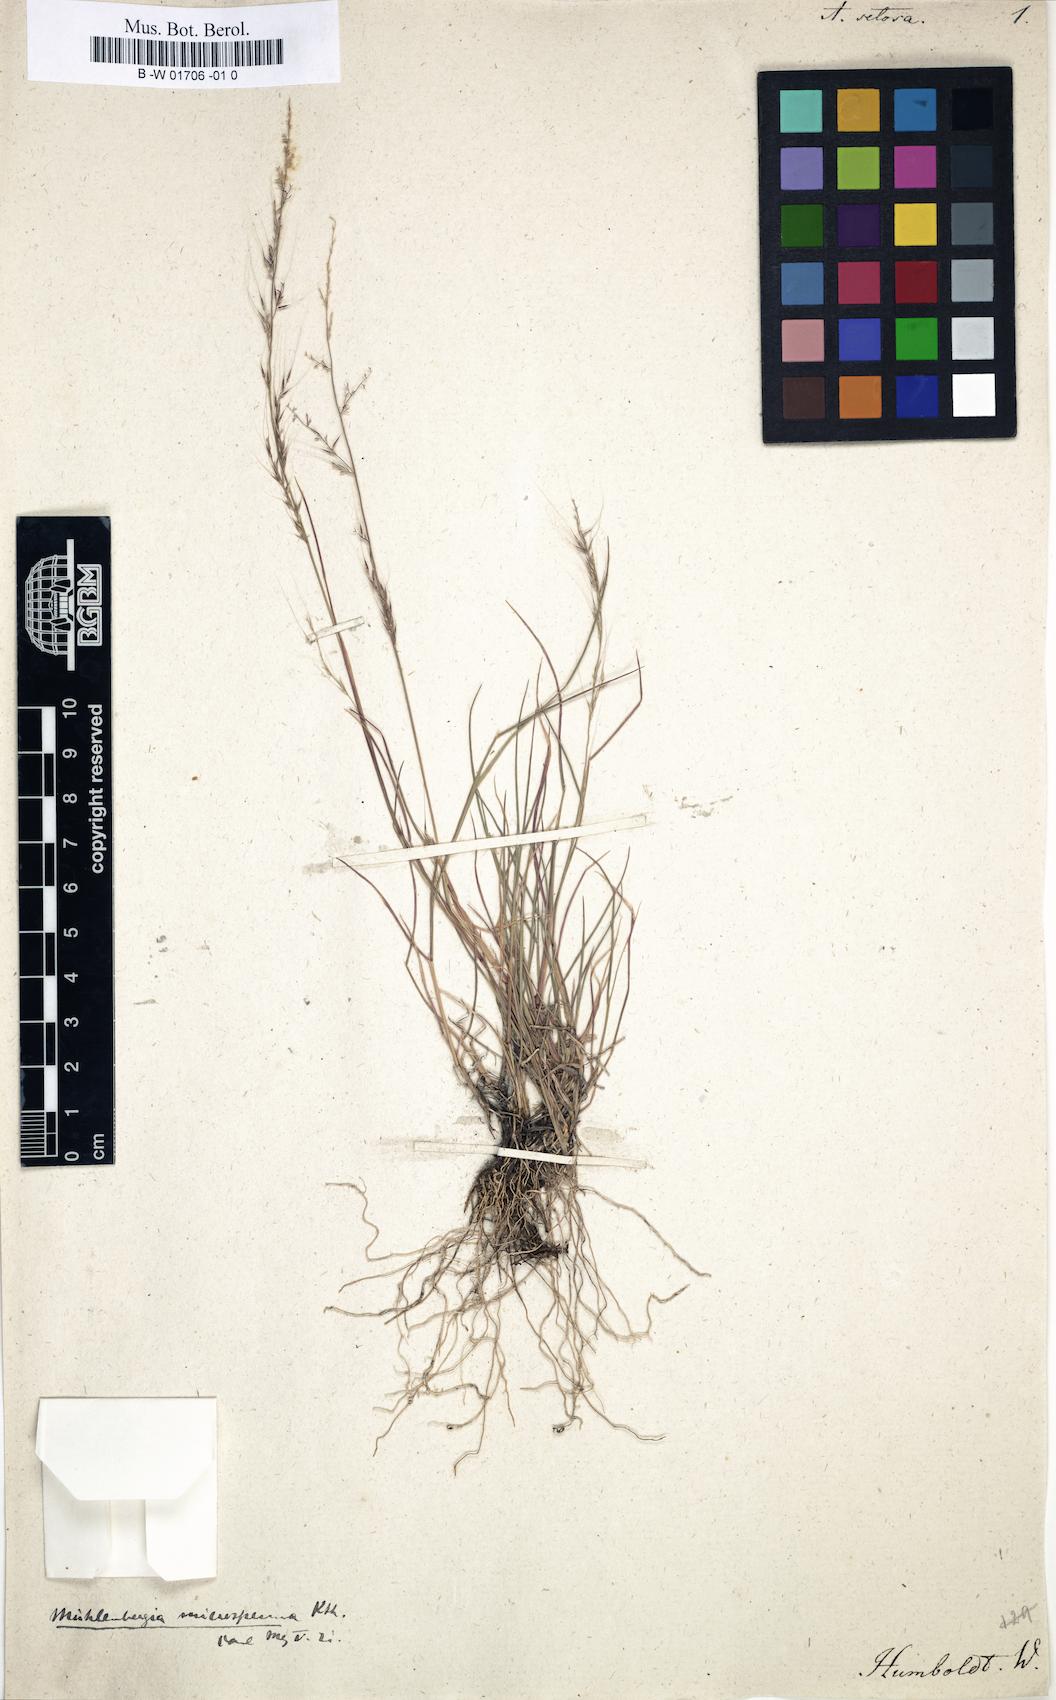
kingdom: Plantae
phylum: Tracheophyta
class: Liliopsida
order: Poales
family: Poaceae
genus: Muhlenbergia
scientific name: Muhlenbergia microsperma
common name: Littleseed muhly
